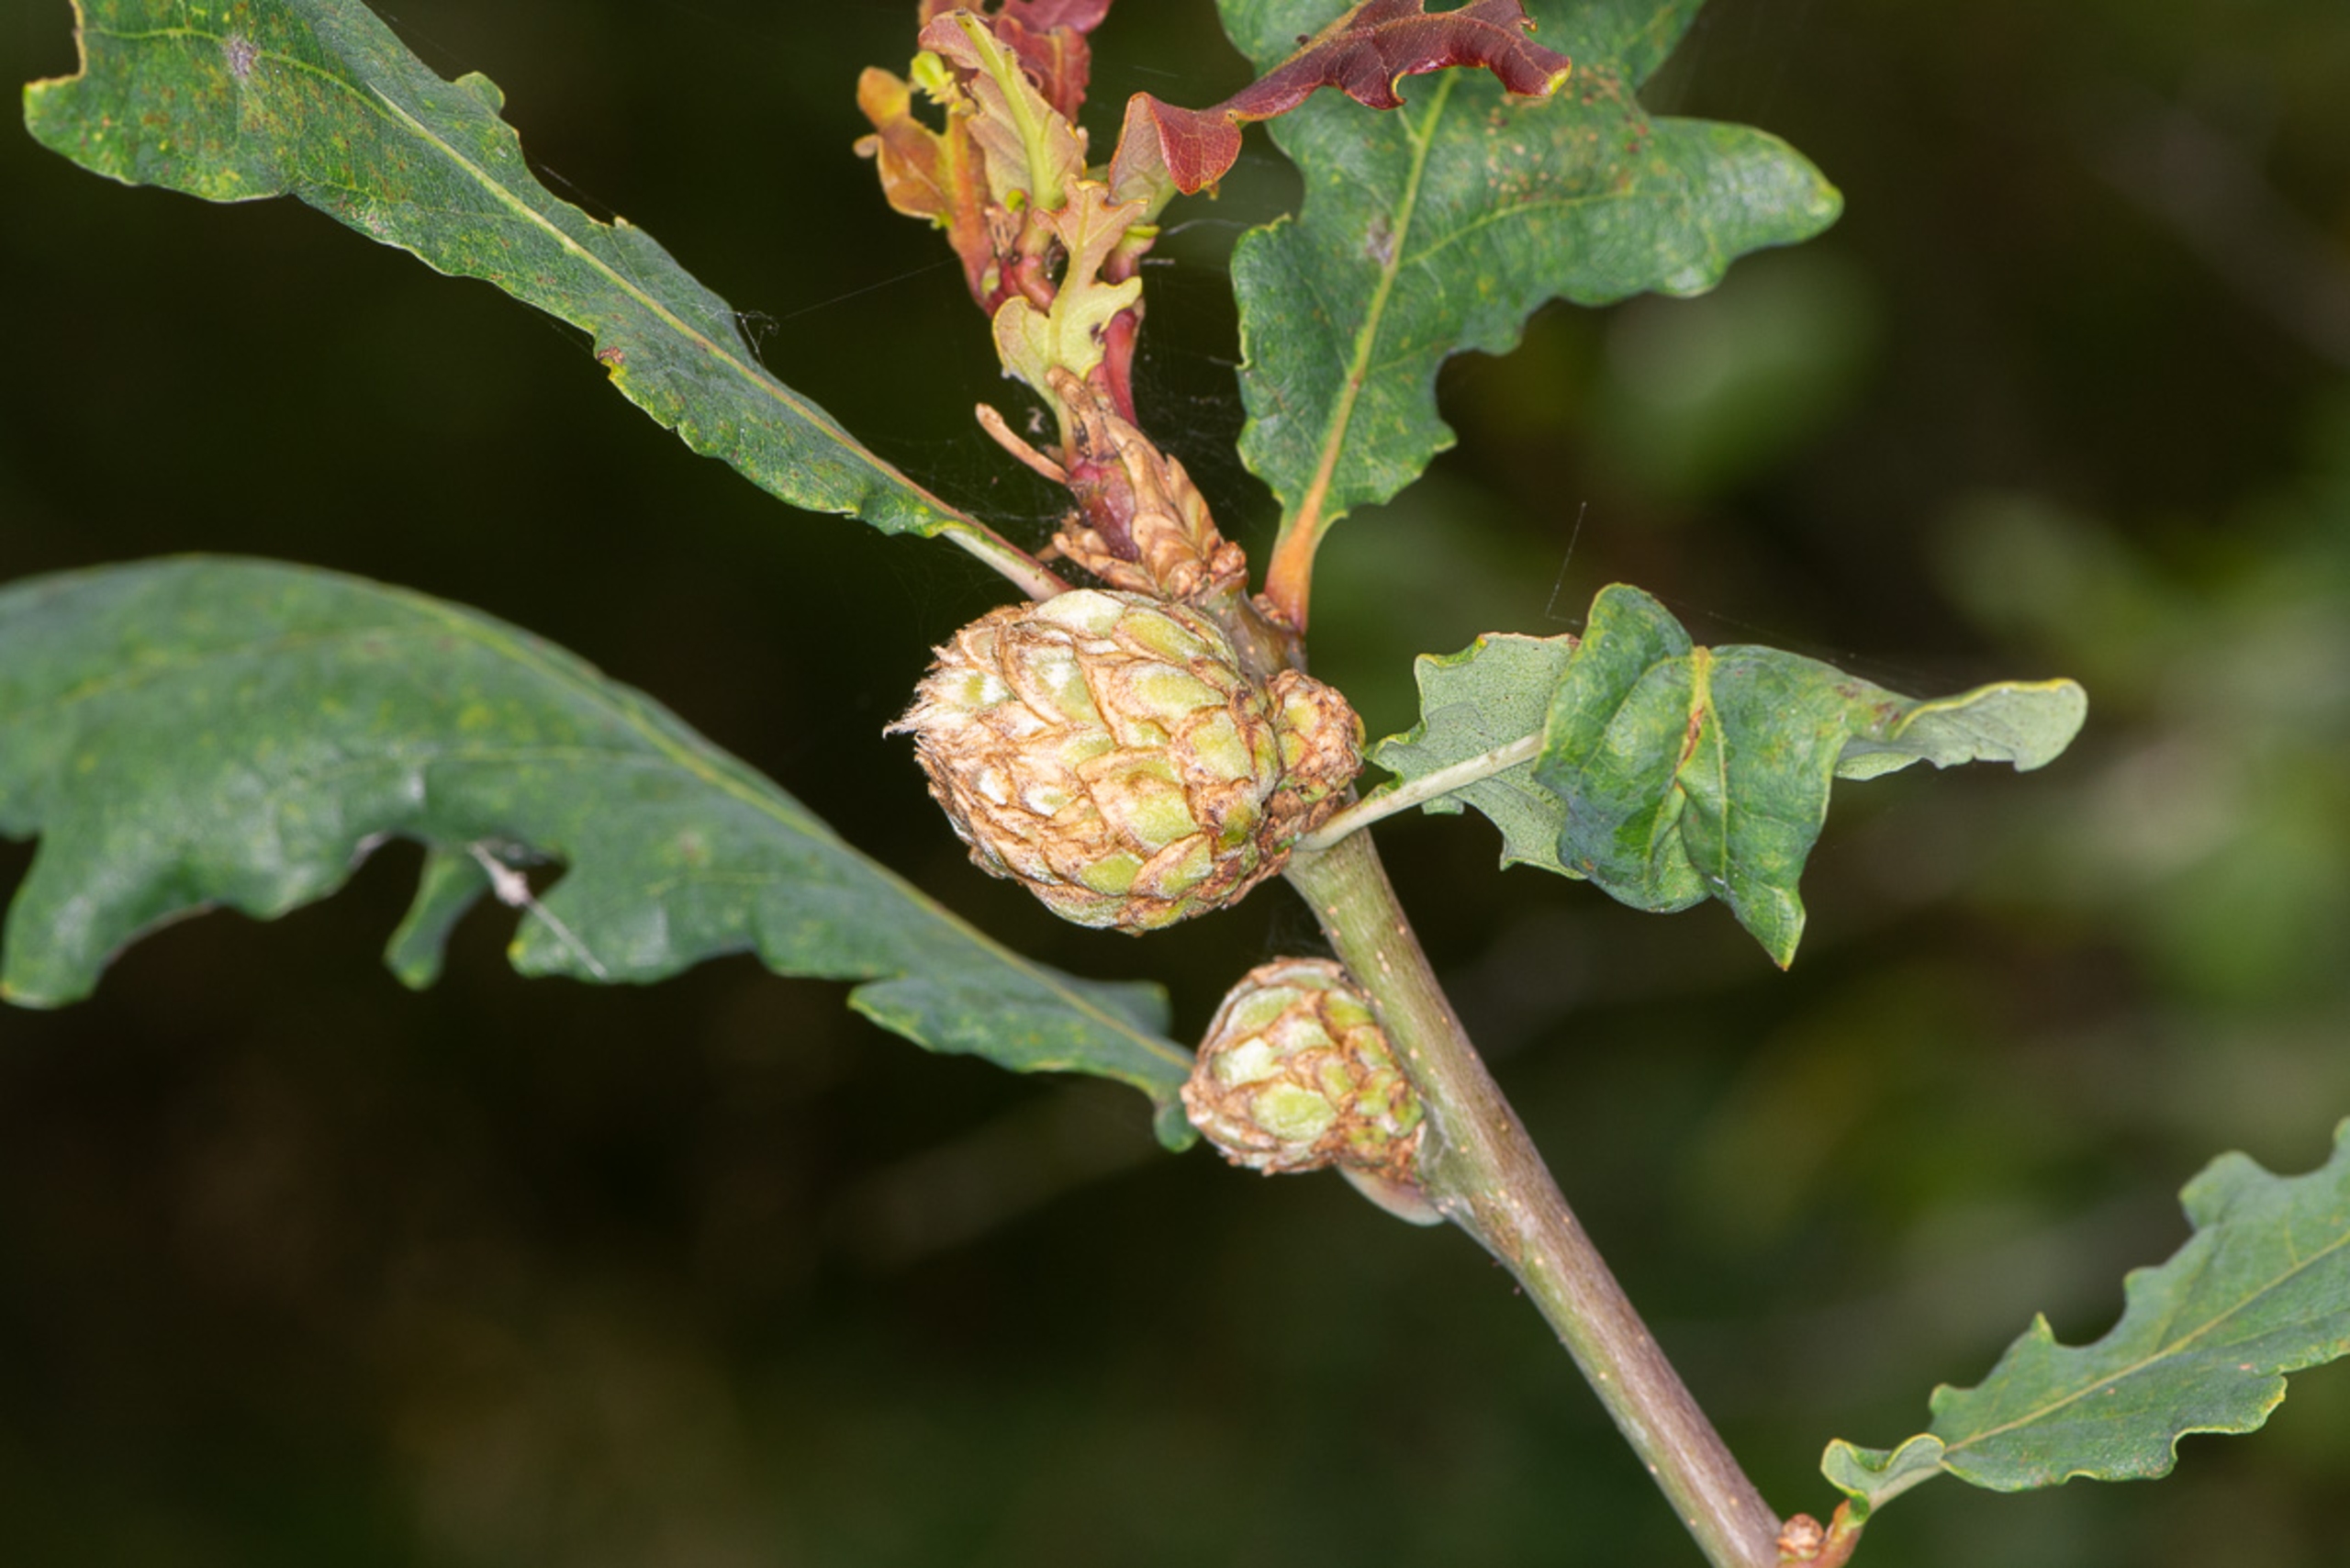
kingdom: Animalia
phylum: Arthropoda
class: Insecta
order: Hymenoptera
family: Cynipidae
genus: Andricus
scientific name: Andricus foecundatrix
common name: Artiskokgalhveps
